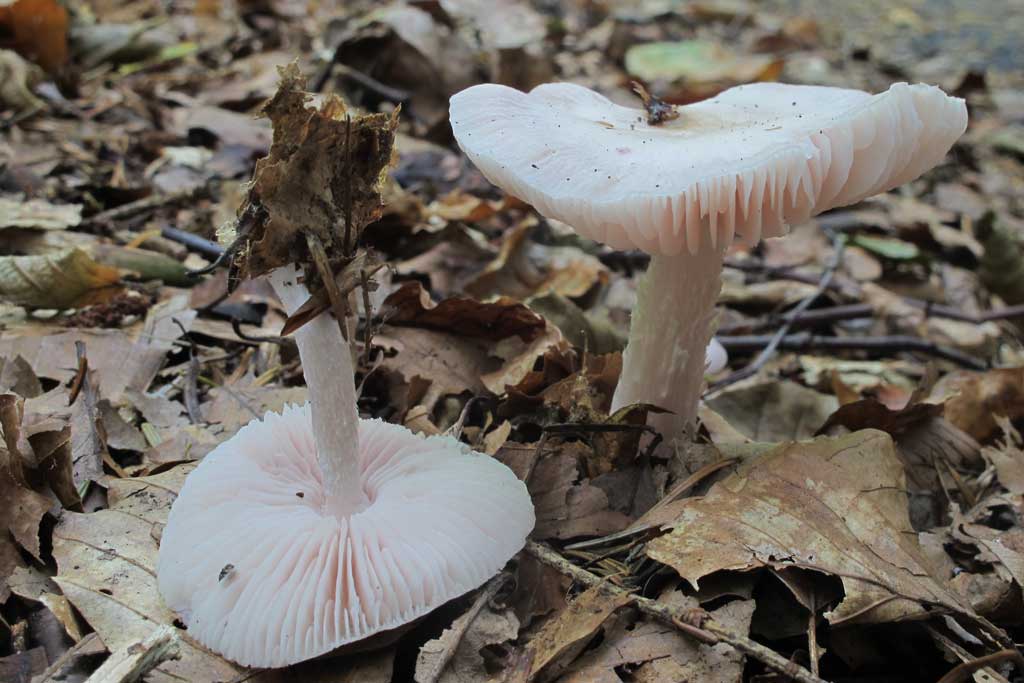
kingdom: Fungi
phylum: Basidiomycota
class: Agaricomycetes
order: Agaricales
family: Mycenaceae
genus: Mycena
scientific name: Mycena rosea
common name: rosa huesvamp
